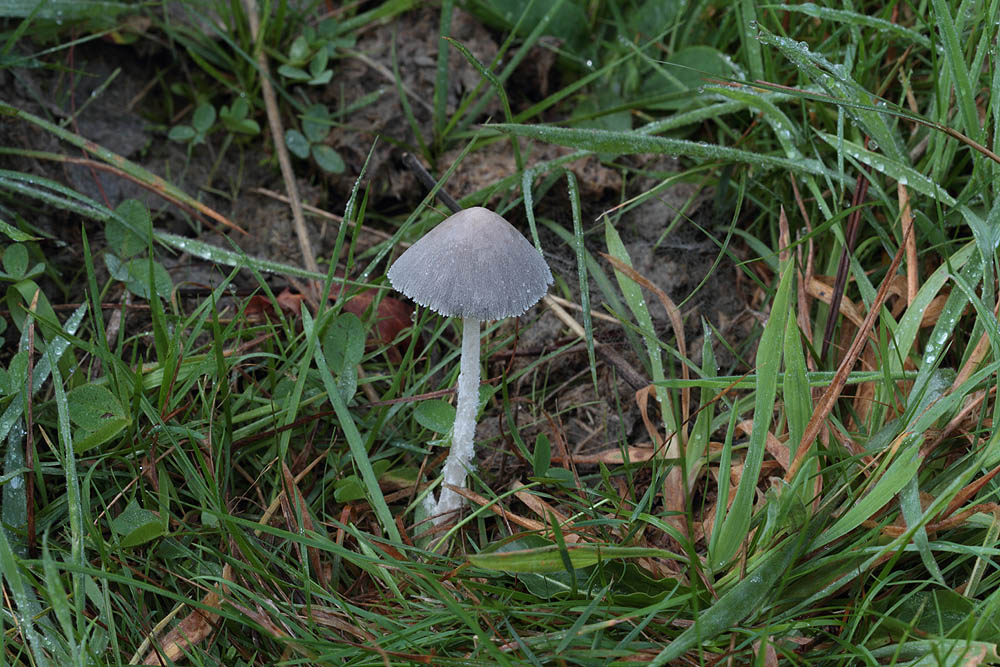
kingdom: Fungi
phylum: Basidiomycota
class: Agaricomycetes
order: Agaricales
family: Psathyrellaceae
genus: Coprinopsis
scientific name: Coprinopsis nivea
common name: snehvid blækhat
